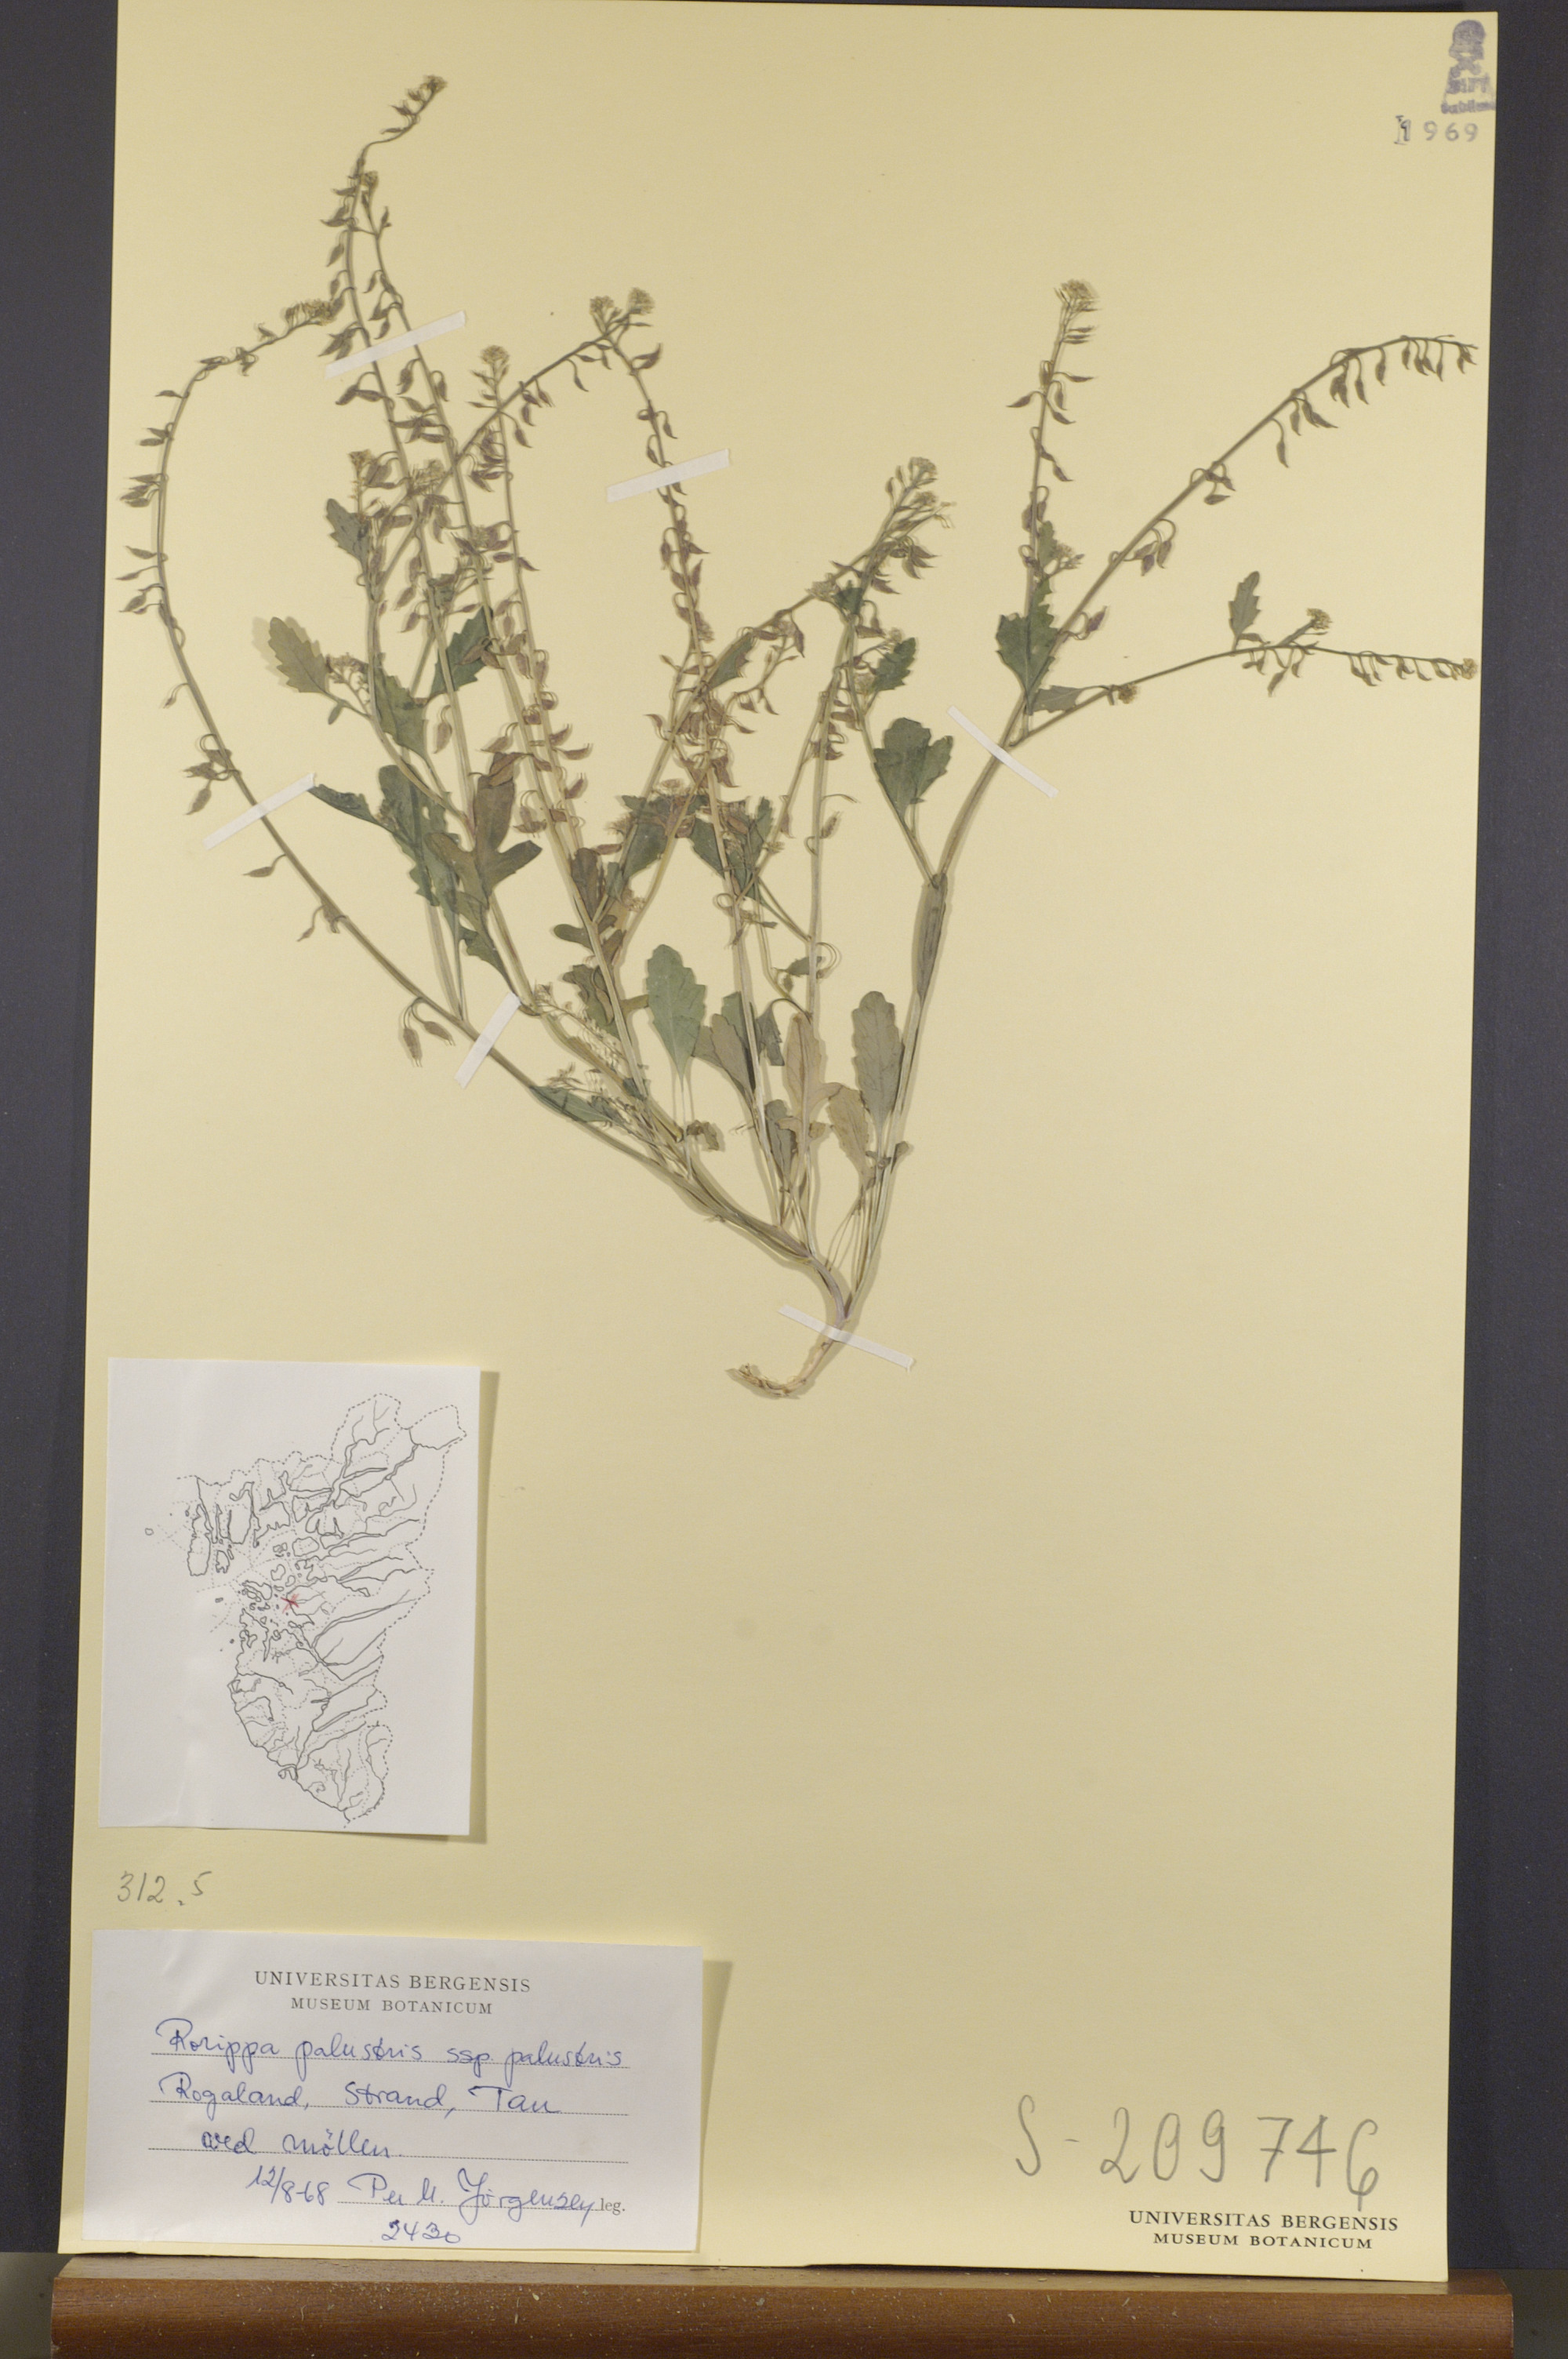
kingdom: Plantae
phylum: Tracheophyta
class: Magnoliopsida
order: Brassicales
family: Brassicaceae
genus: Rorippa
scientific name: Rorippa palustris
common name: Marsh yellow-cress
